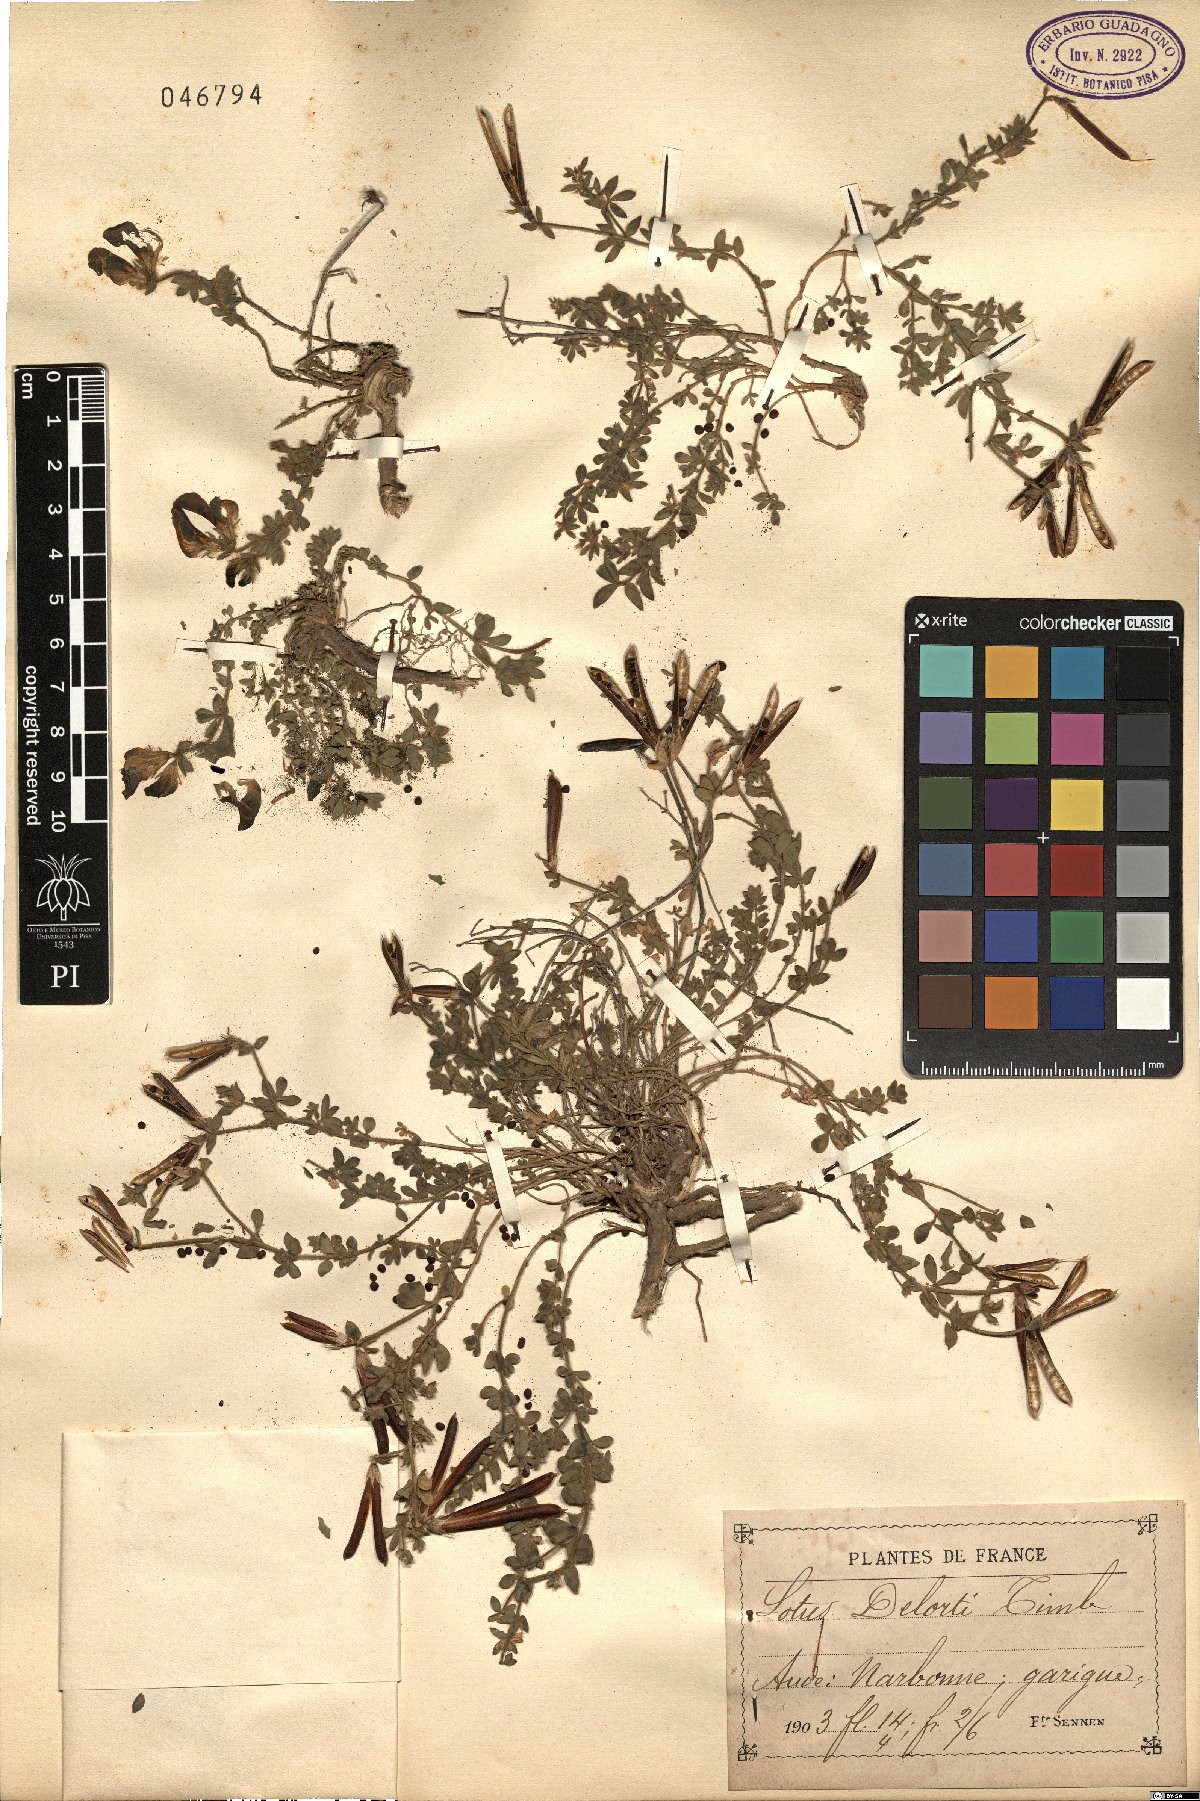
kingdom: Plantae
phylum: Tracheophyta
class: Magnoliopsida
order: Fabales
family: Fabaceae
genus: Lotus
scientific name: Lotus corniculatus
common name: Common bird's-foot-trefoil
